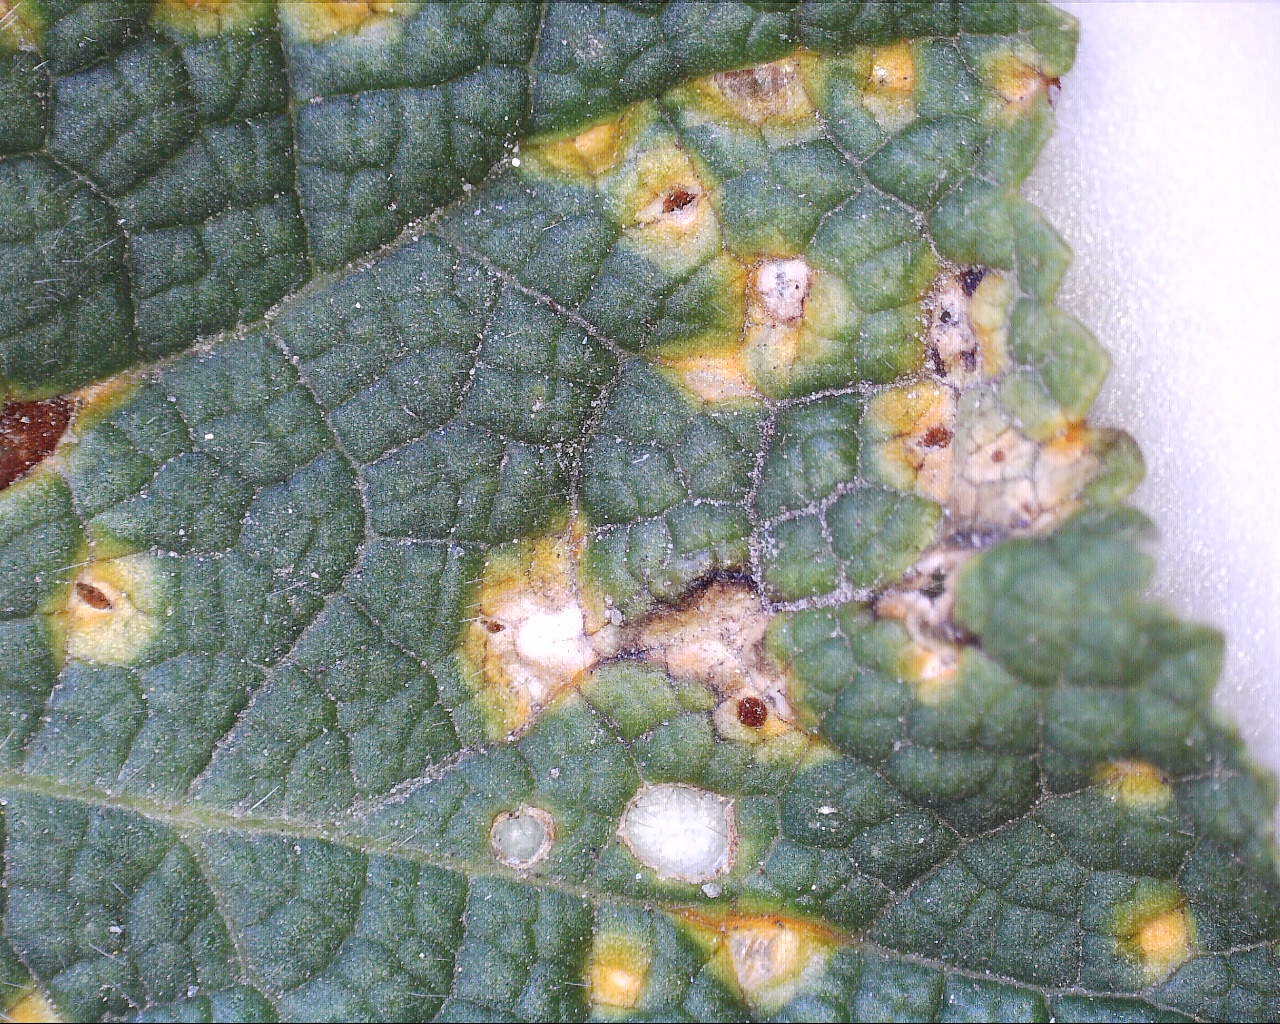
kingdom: Fungi
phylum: Basidiomycota
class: Pucciniomycetes
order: Pucciniales
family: Pucciniaceae
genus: Puccinia
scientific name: Puccinia malvacearum
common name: stokrose-tvecellerust
